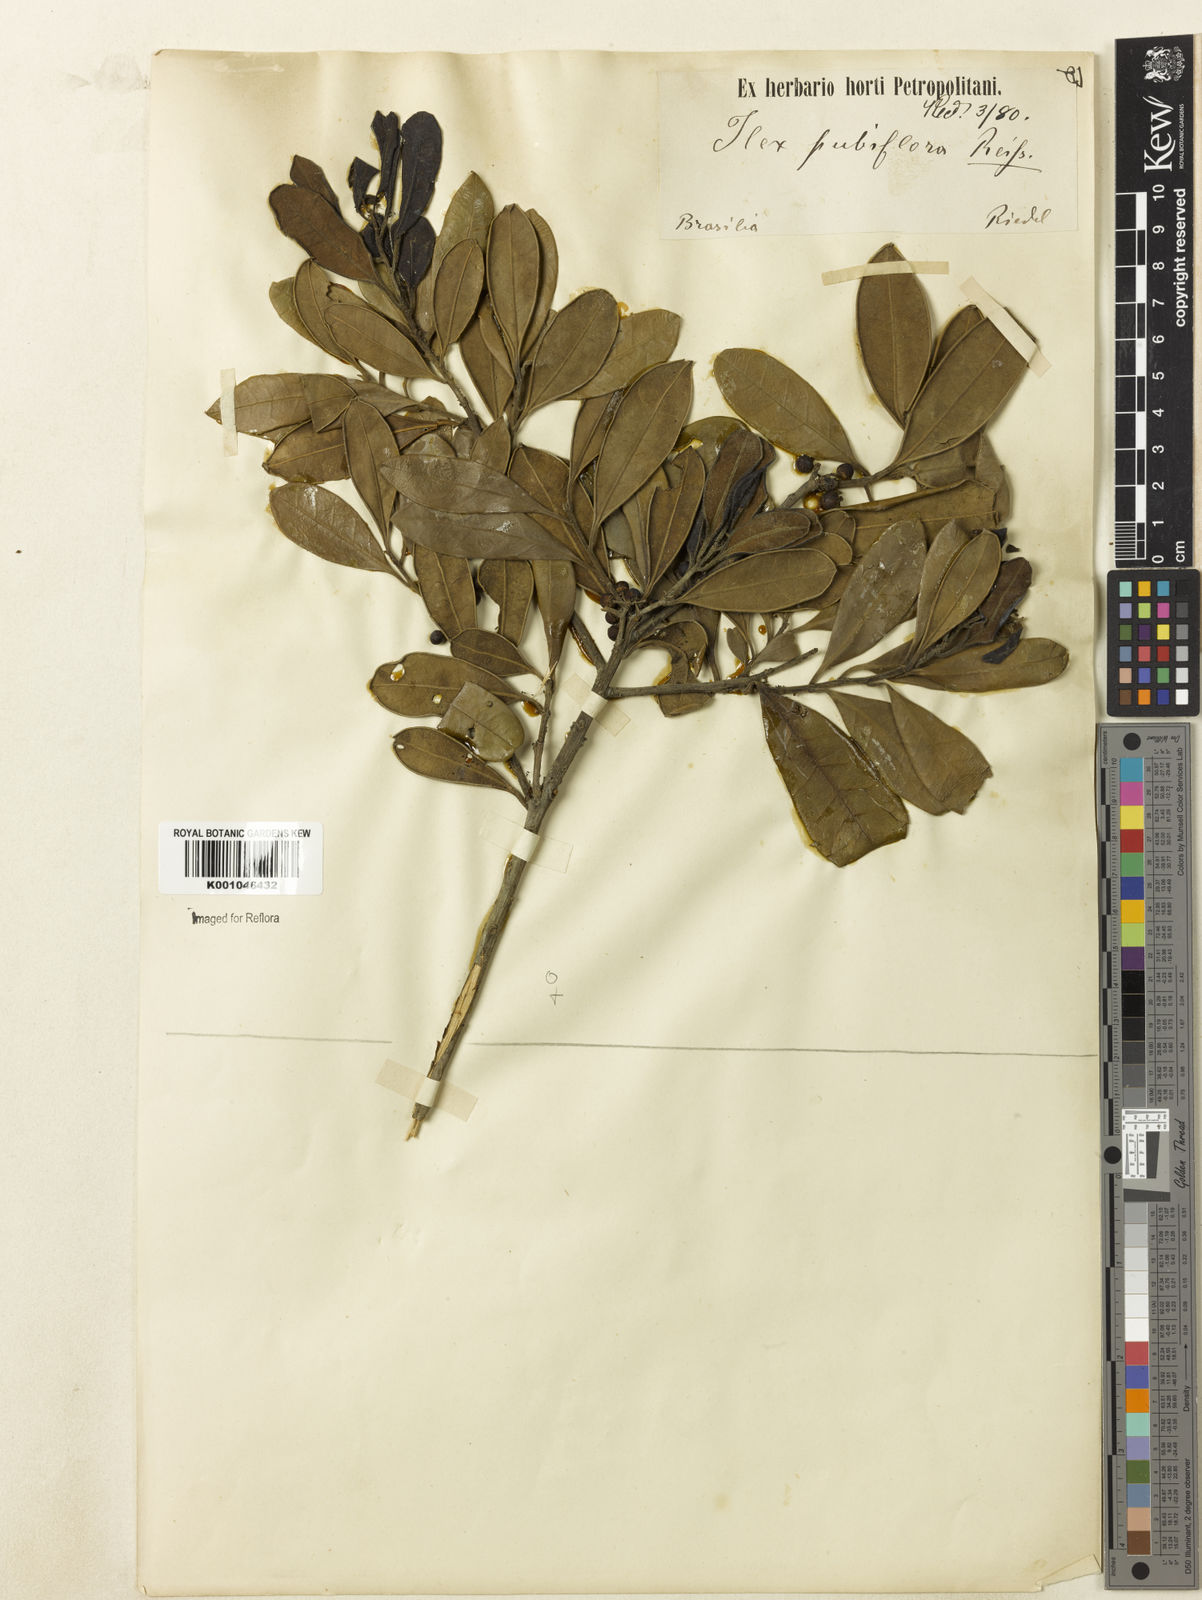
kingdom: Plantae
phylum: Tracheophyta
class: Magnoliopsida
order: Aquifoliales
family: Aquifoliaceae
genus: Ilex
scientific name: Ilex brasiliensis
